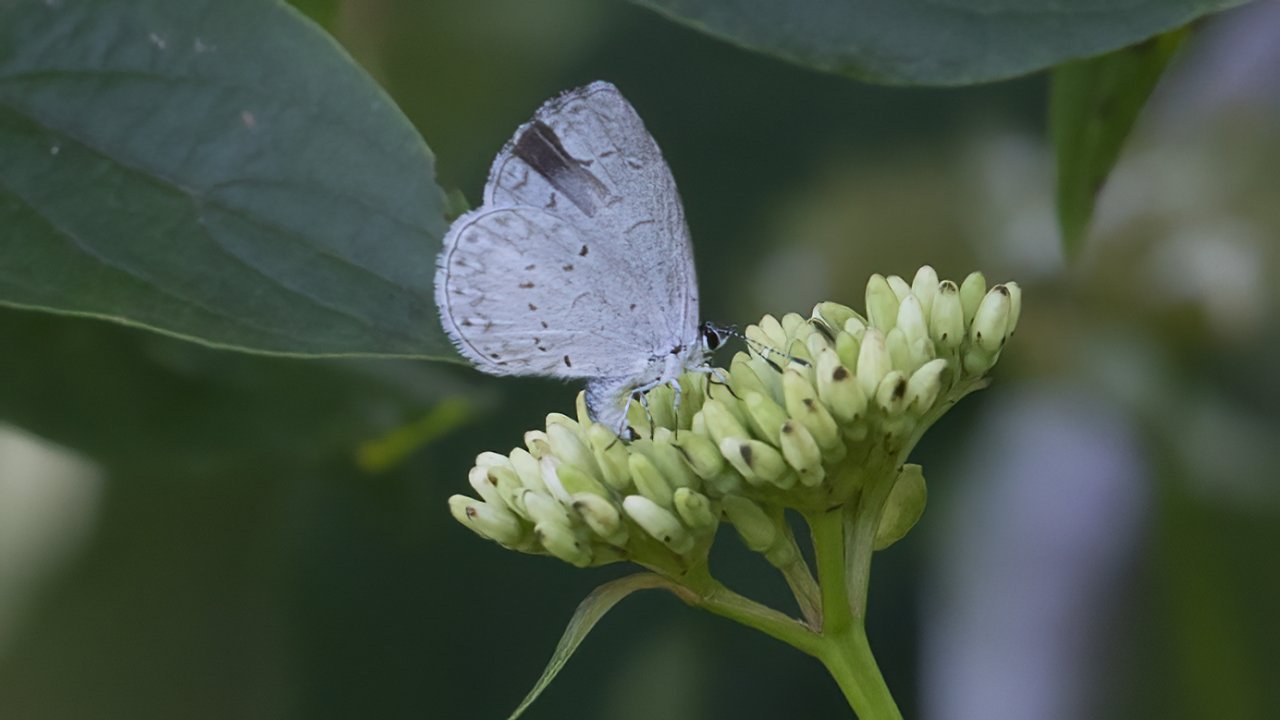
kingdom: Animalia
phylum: Arthropoda
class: Insecta
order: Lepidoptera
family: Lycaenidae
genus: Celastrina
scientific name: Celastrina ladon
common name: Spring Azure
